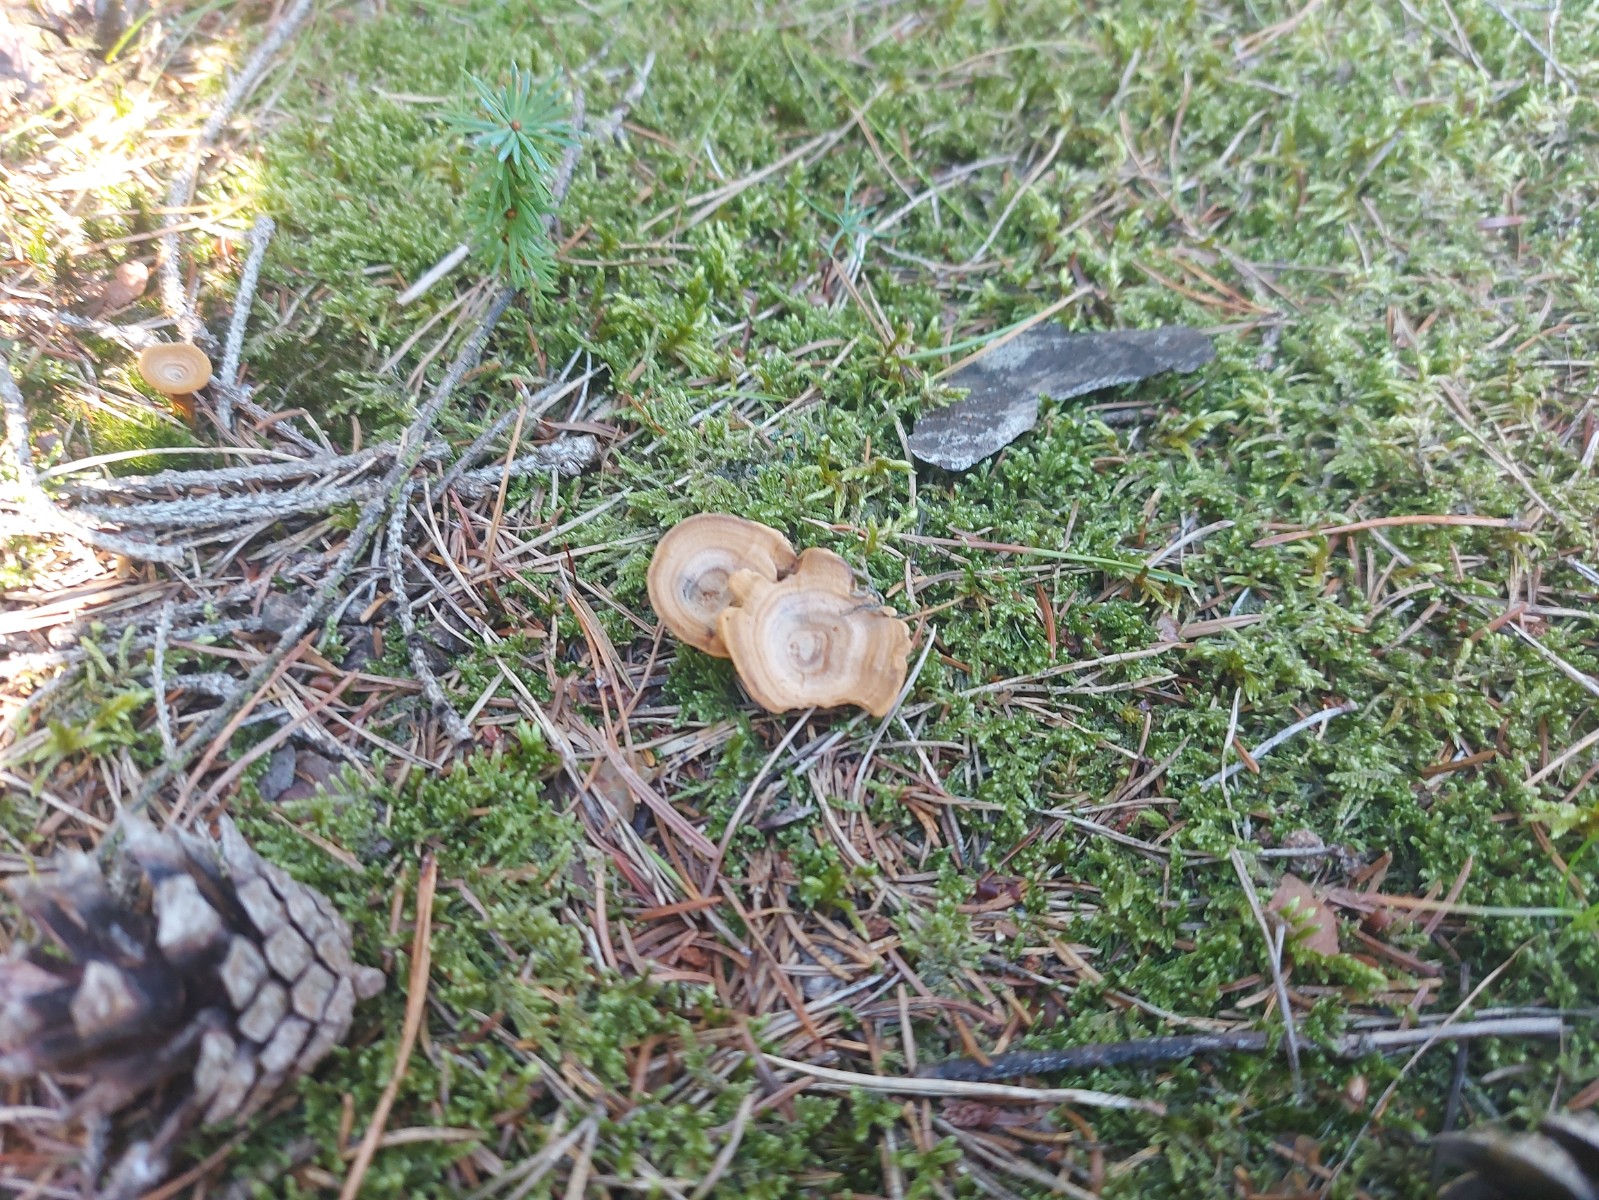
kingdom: Fungi
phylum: Basidiomycota
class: Agaricomycetes
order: Hymenochaetales
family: Hymenochaetaceae
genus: Coltricia
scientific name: Coltricia perennis
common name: almindelig sandporesvamp
